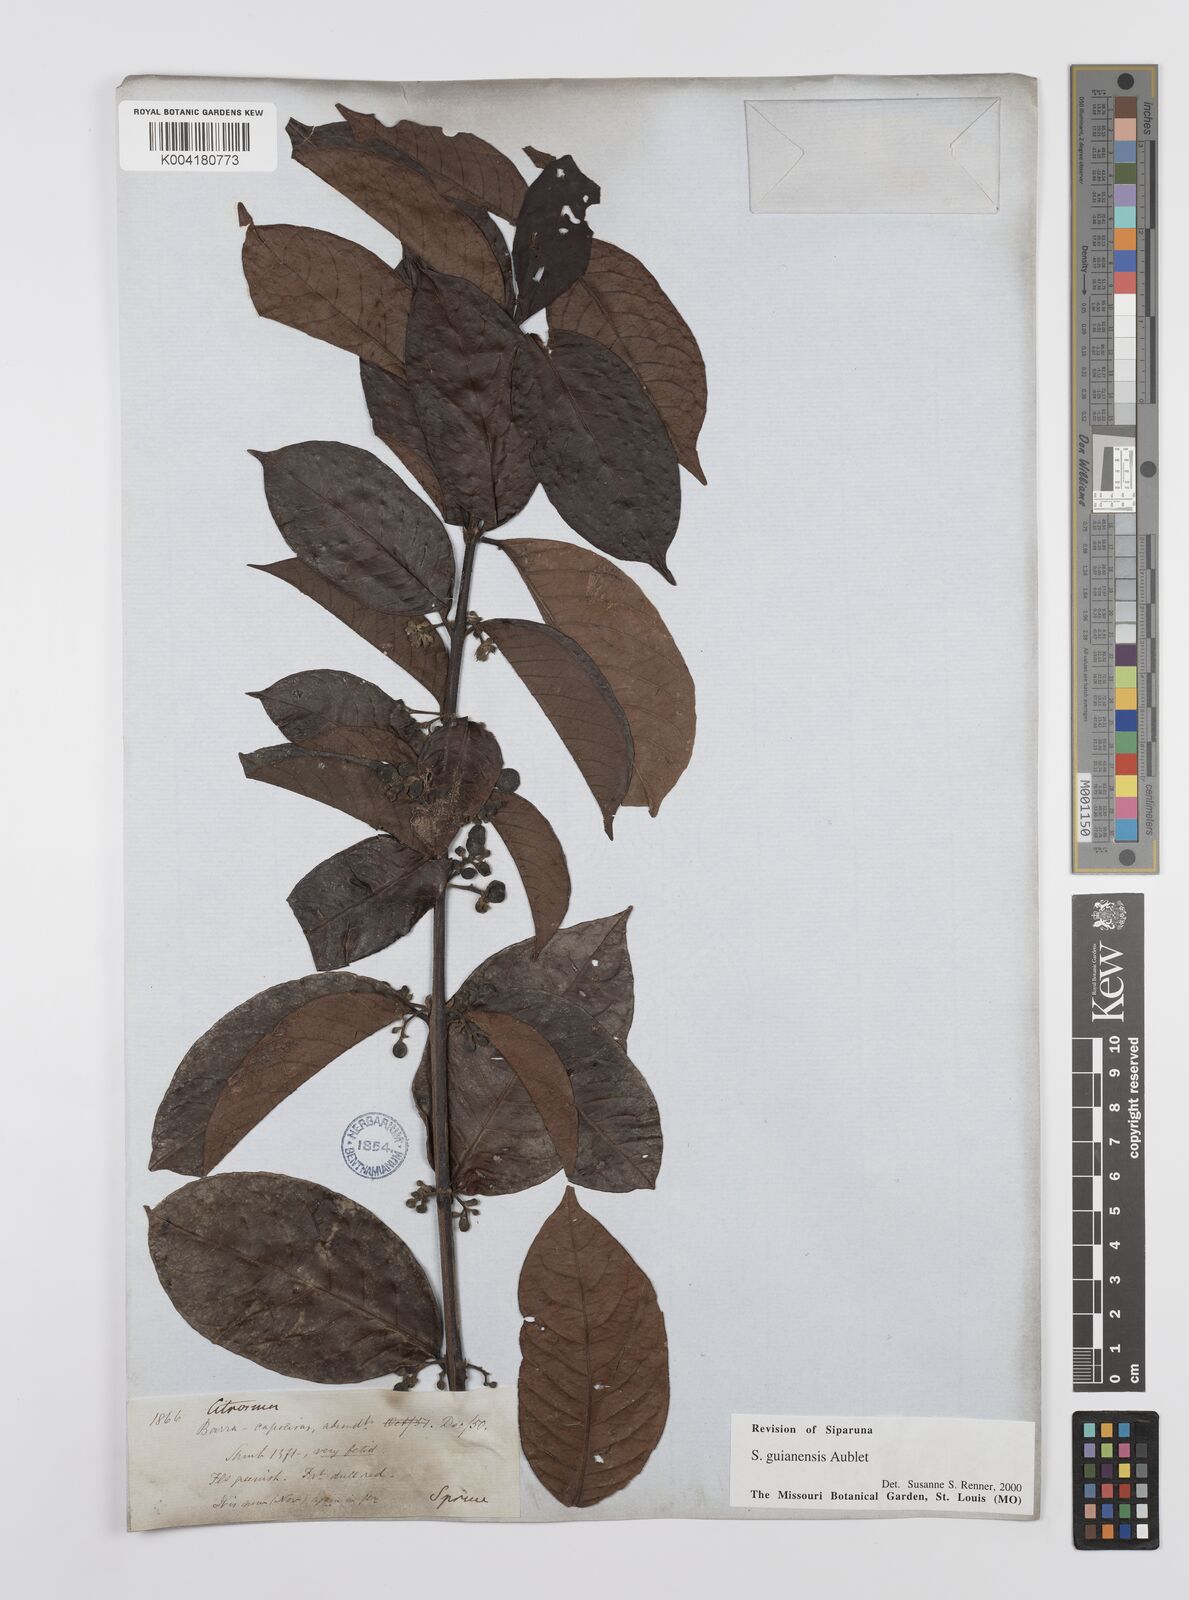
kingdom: Plantae
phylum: Tracheophyta
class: Magnoliopsida
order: Laurales
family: Siparunaceae
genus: Siparuna
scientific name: Siparuna guianensis
